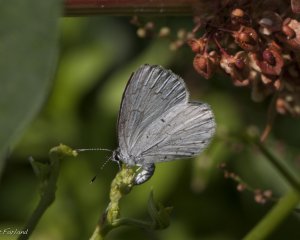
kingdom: Animalia
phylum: Arthropoda
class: Insecta
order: Lepidoptera
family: Lycaenidae
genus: Cyaniris
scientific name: Cyaniris neglecta
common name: Summer Azure
